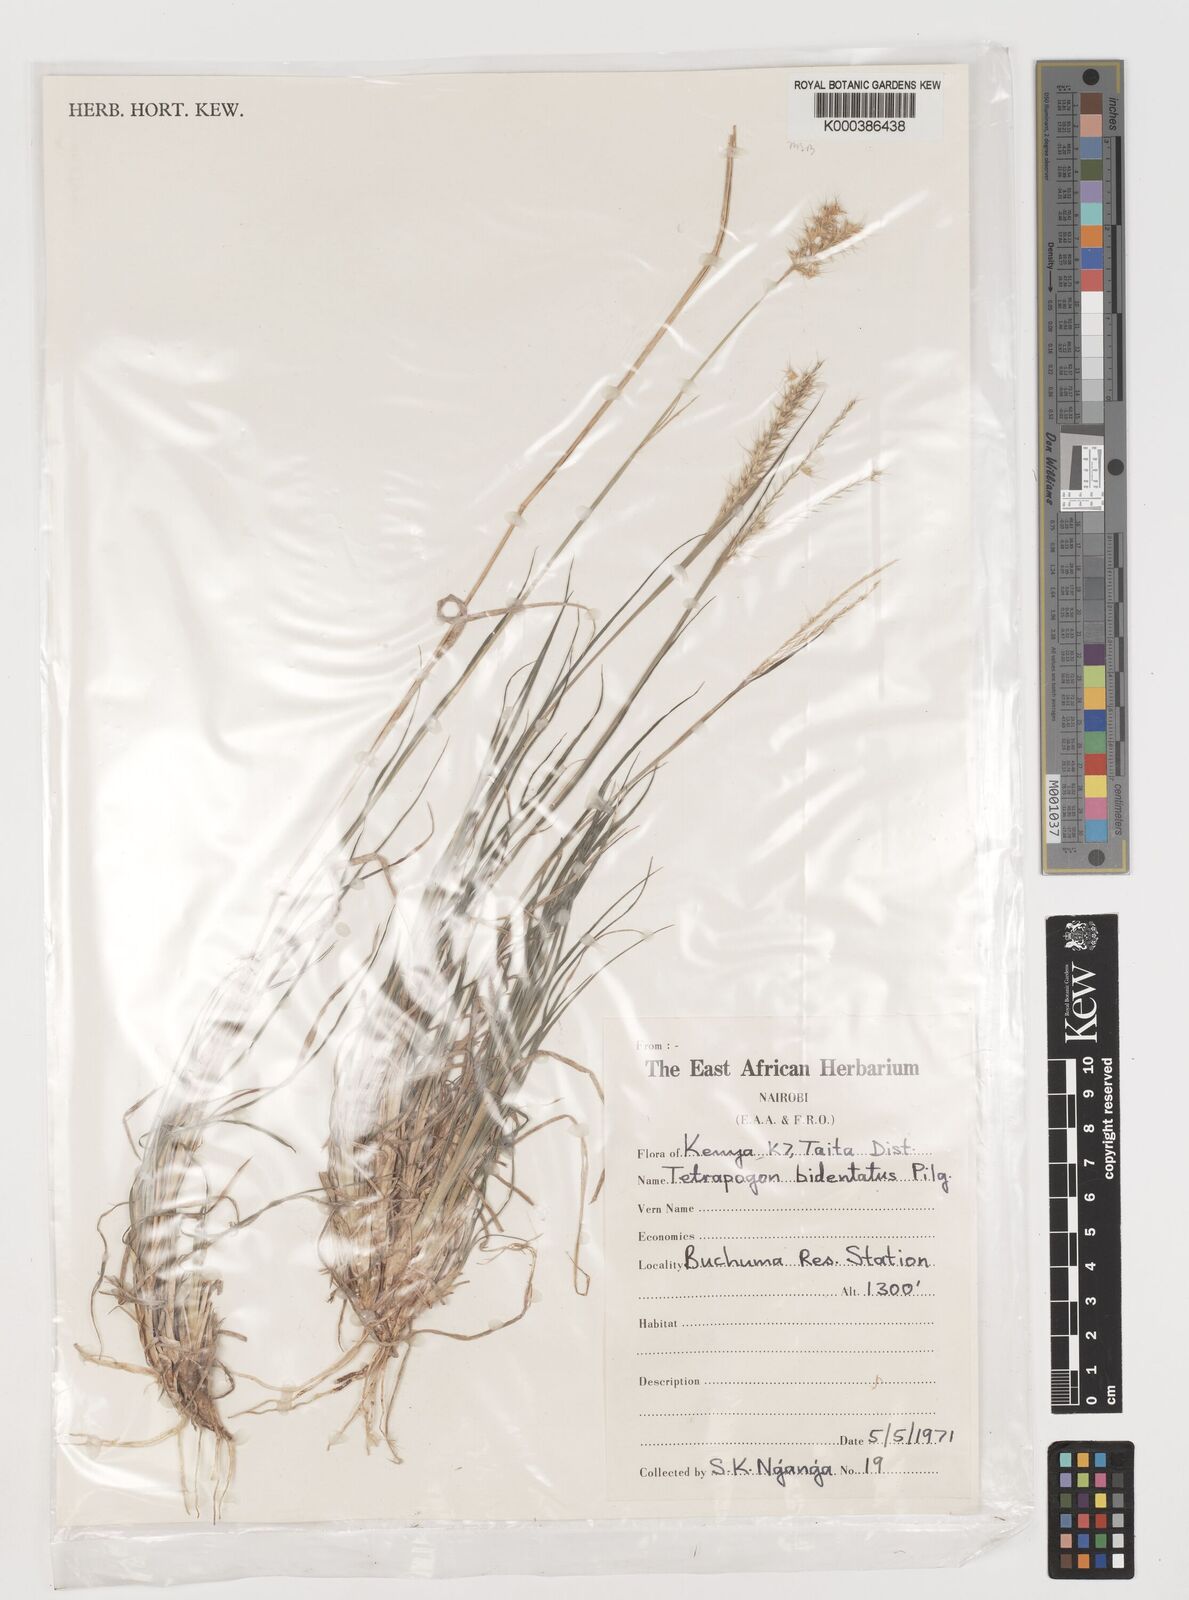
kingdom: Plantae
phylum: Tracheophyta
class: Liliopsida
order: Poales
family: Poaceae
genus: Tetrapogon
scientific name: Tetrapogon bidentatus
